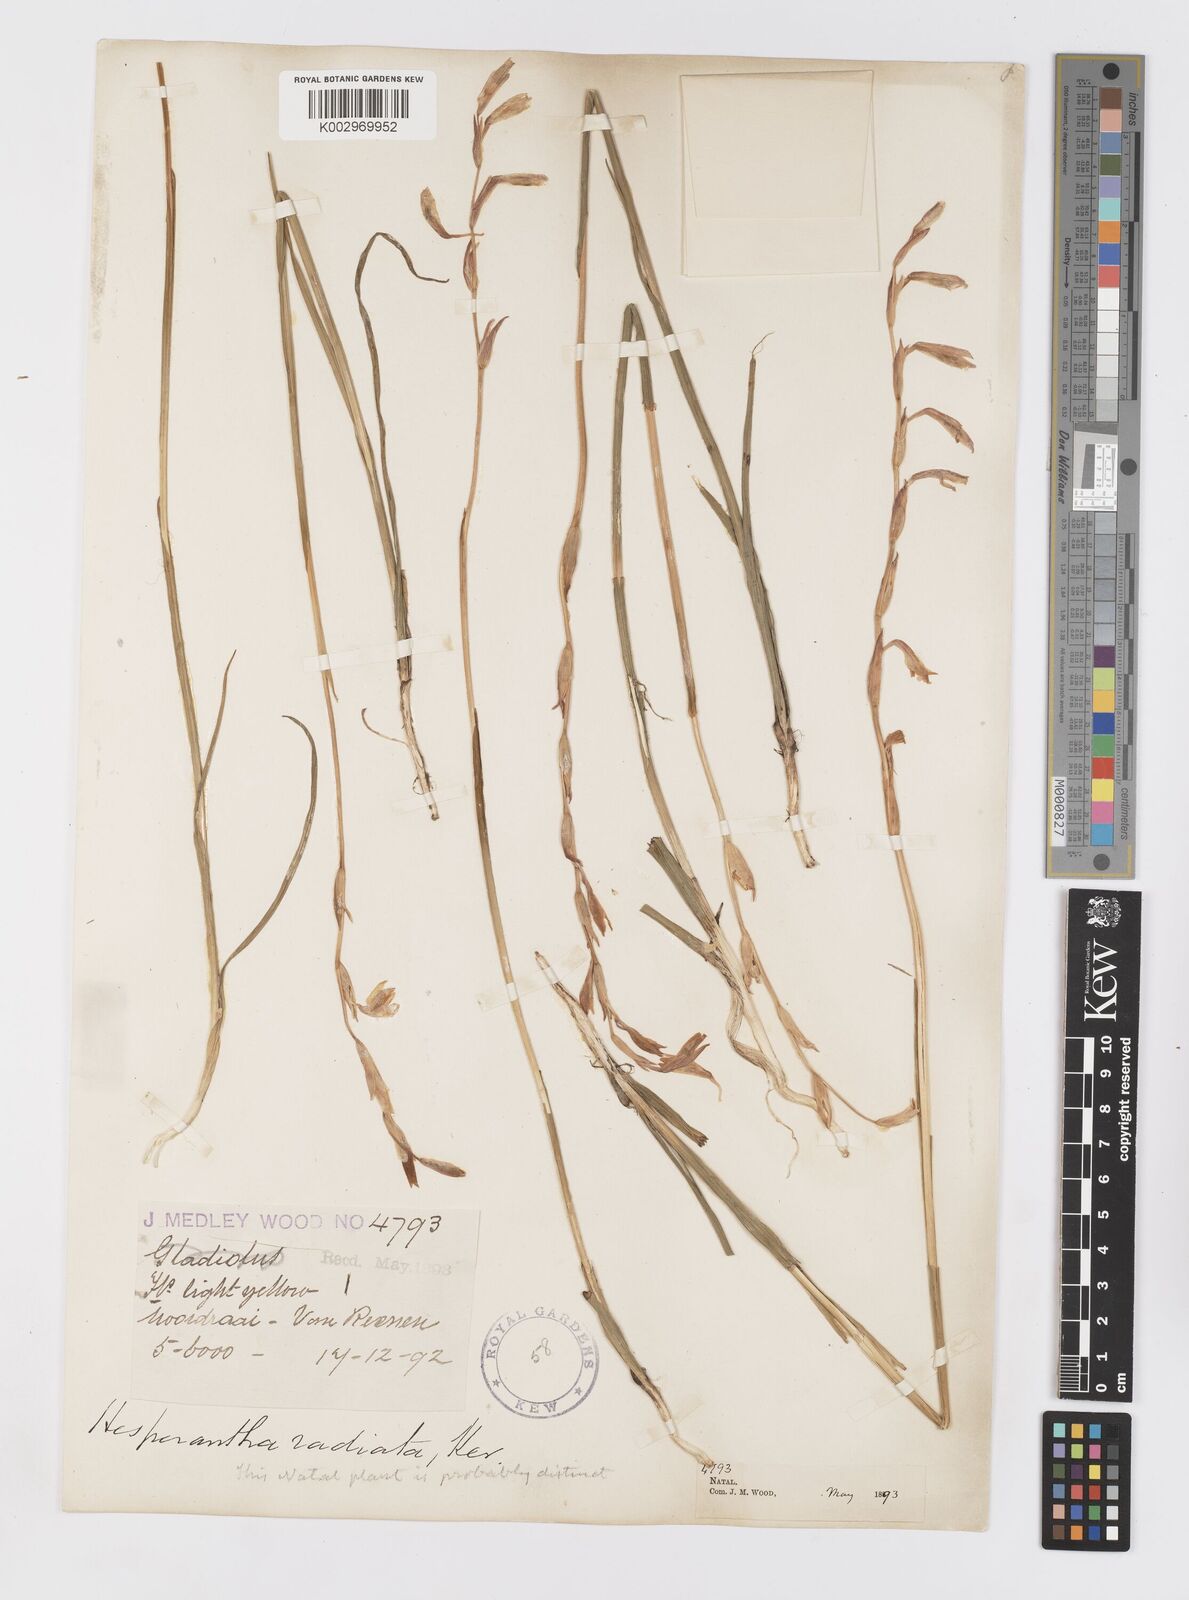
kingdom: Plantae
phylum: Tracheophyta
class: Liliopsida
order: Asparagales
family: Iridaceae
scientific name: Iridaceae
